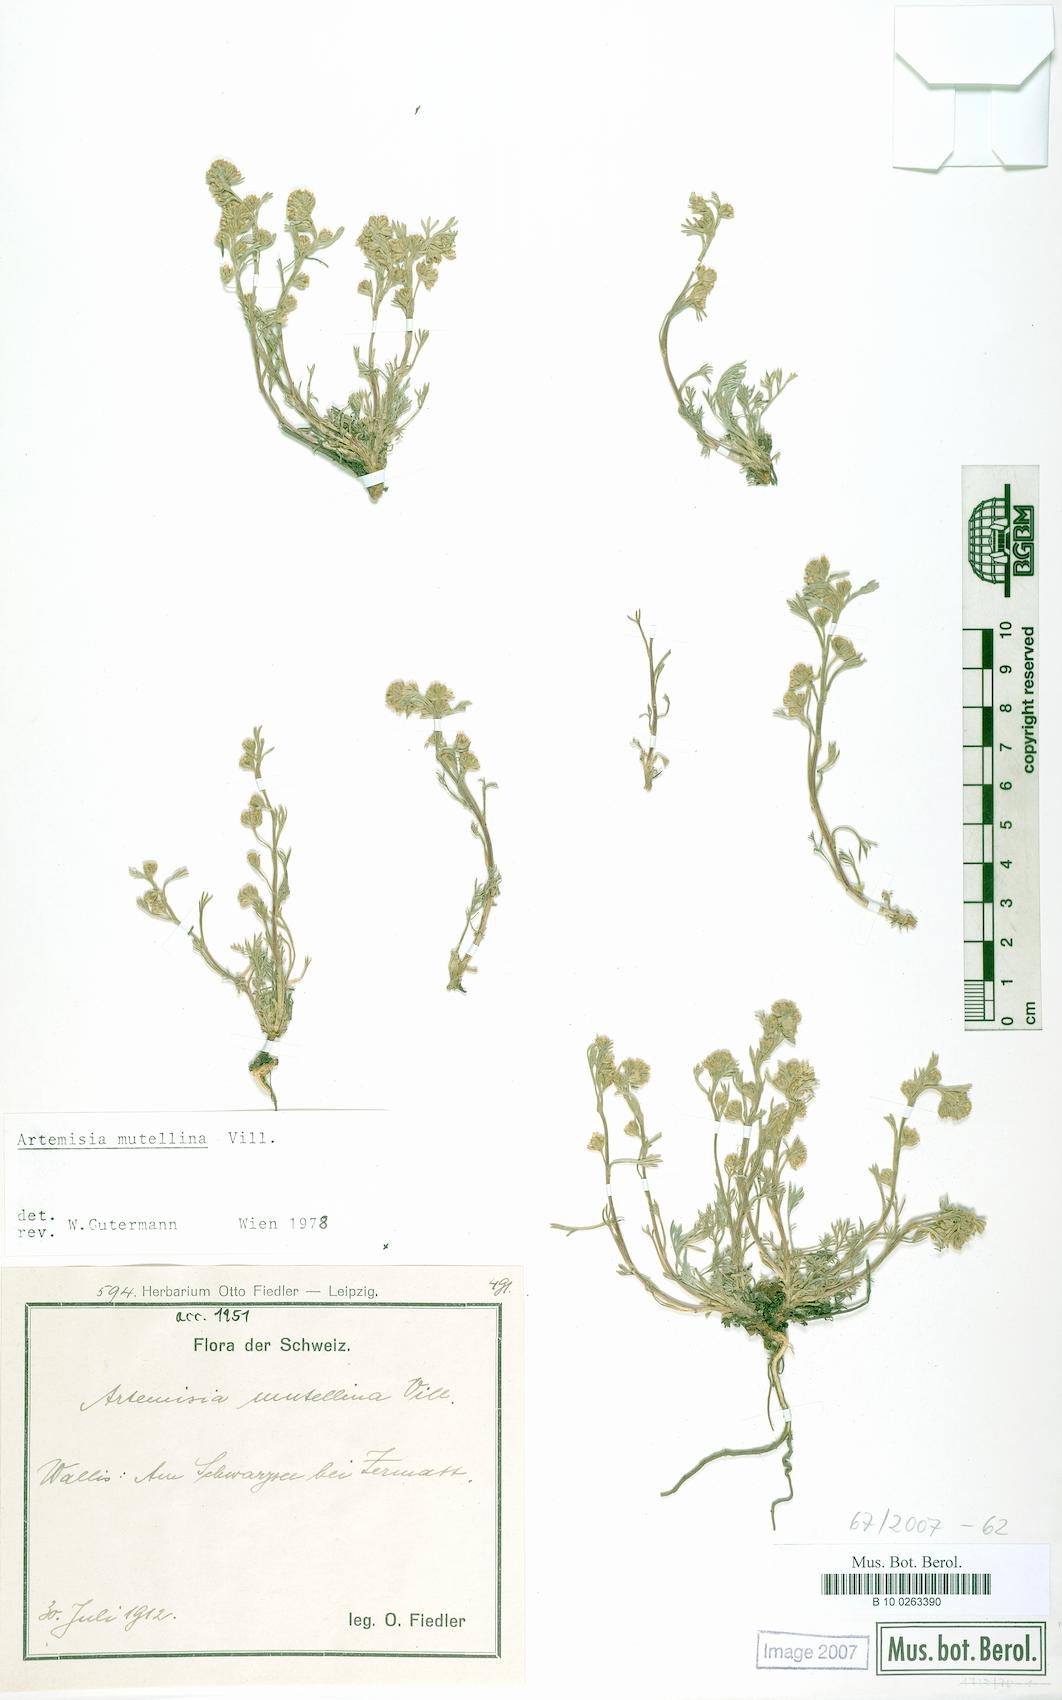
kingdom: Plantae
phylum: Tracheophyta
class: Magnoliopsida
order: Asterales
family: Asteraceae
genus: Artemisia
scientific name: Artemisia mutellina
